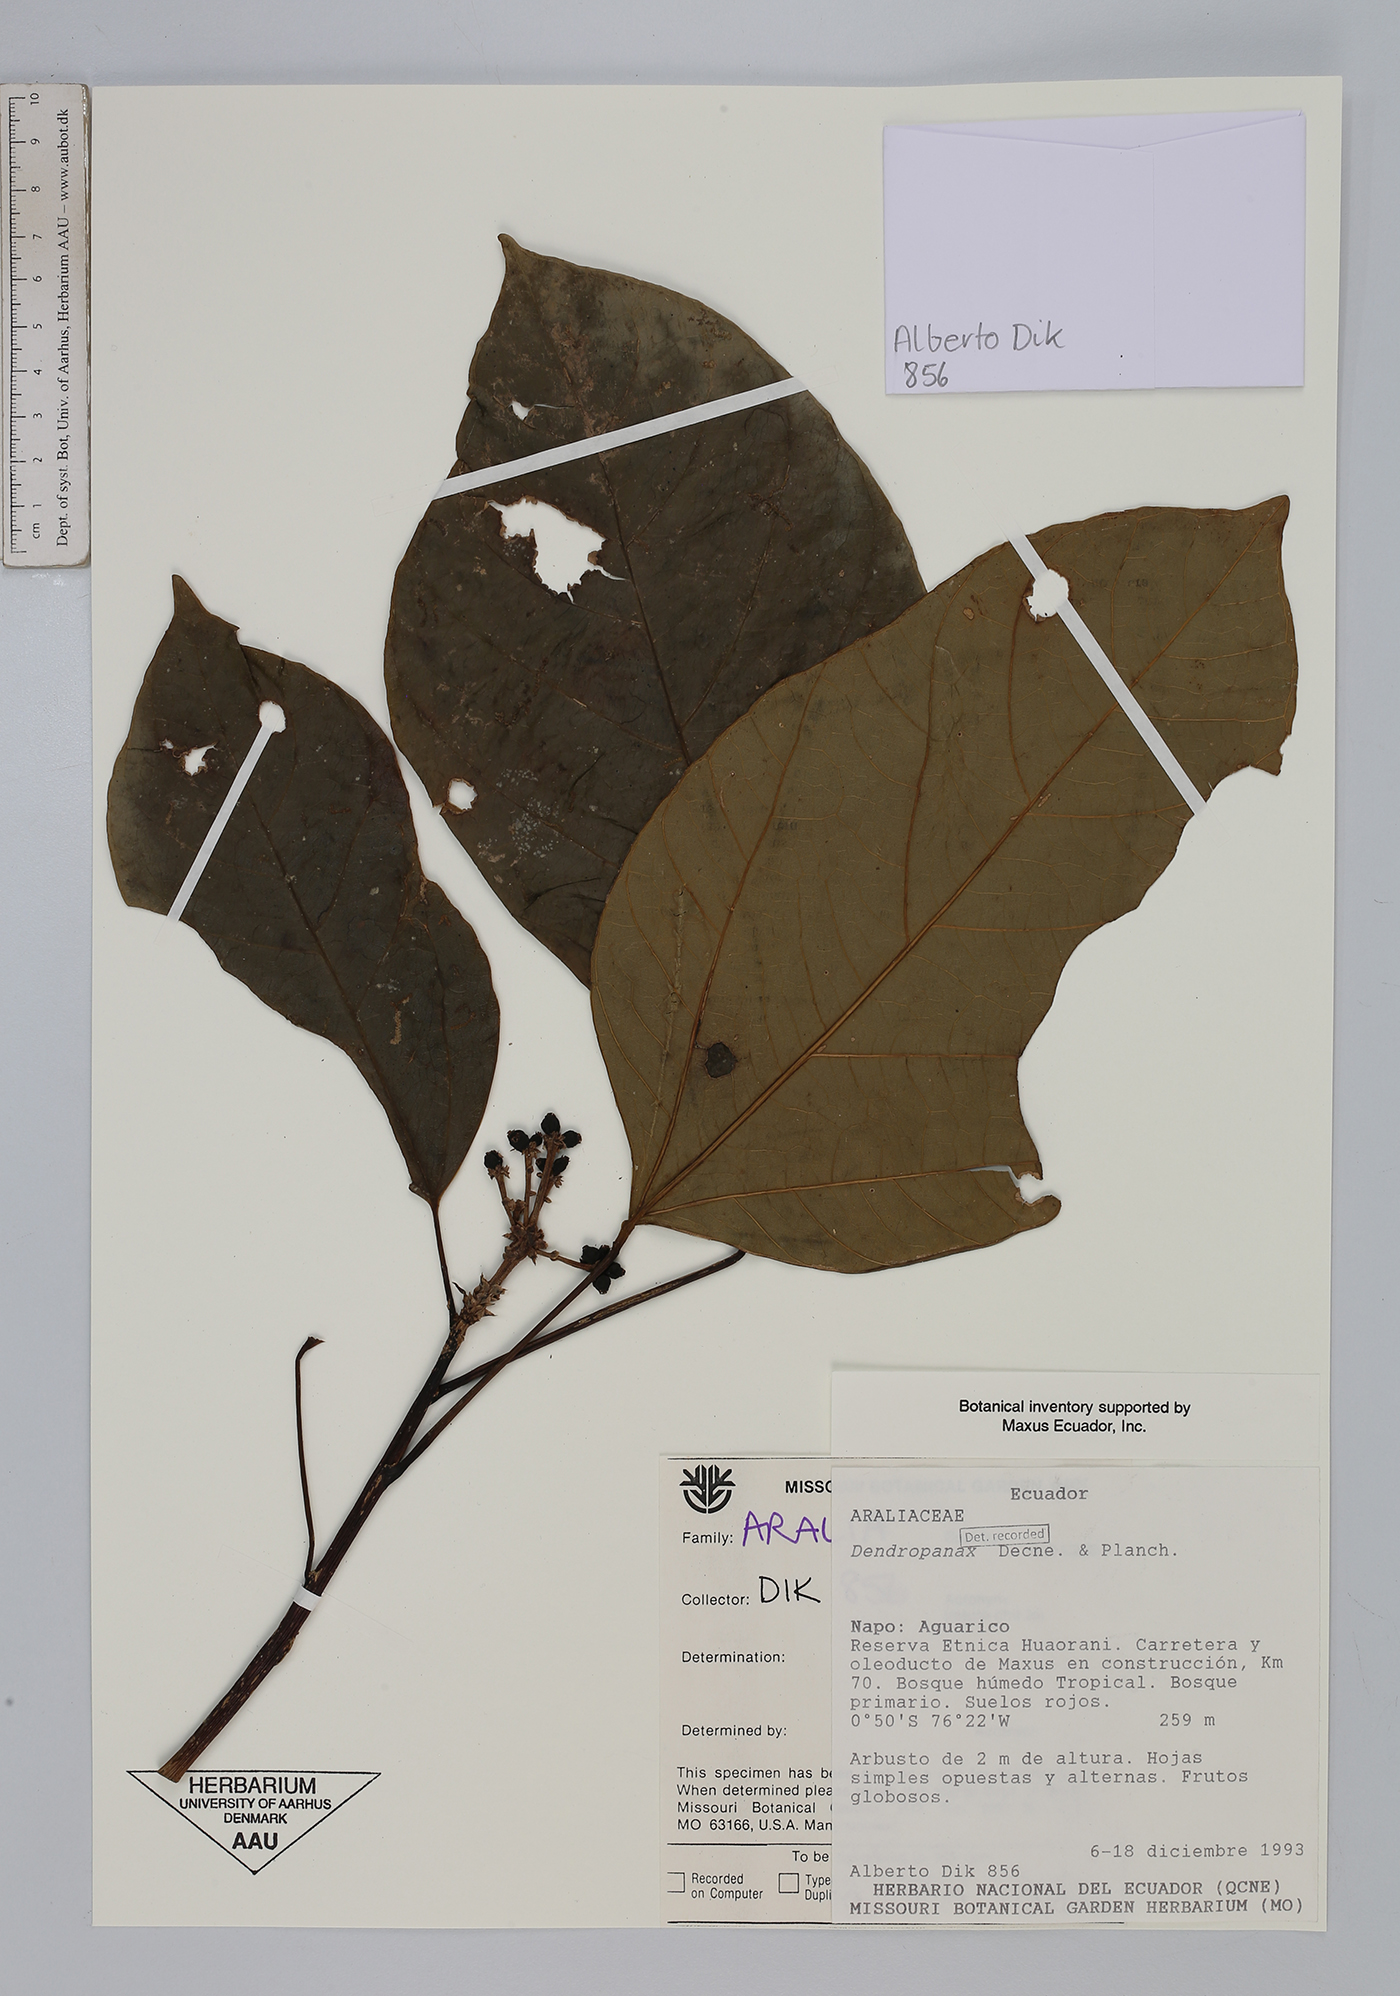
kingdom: Plantae
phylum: Tracheophyta
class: Magnoliopsida
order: Apiales
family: Araliaceae
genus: Dendropanax
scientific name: Dendropanax
